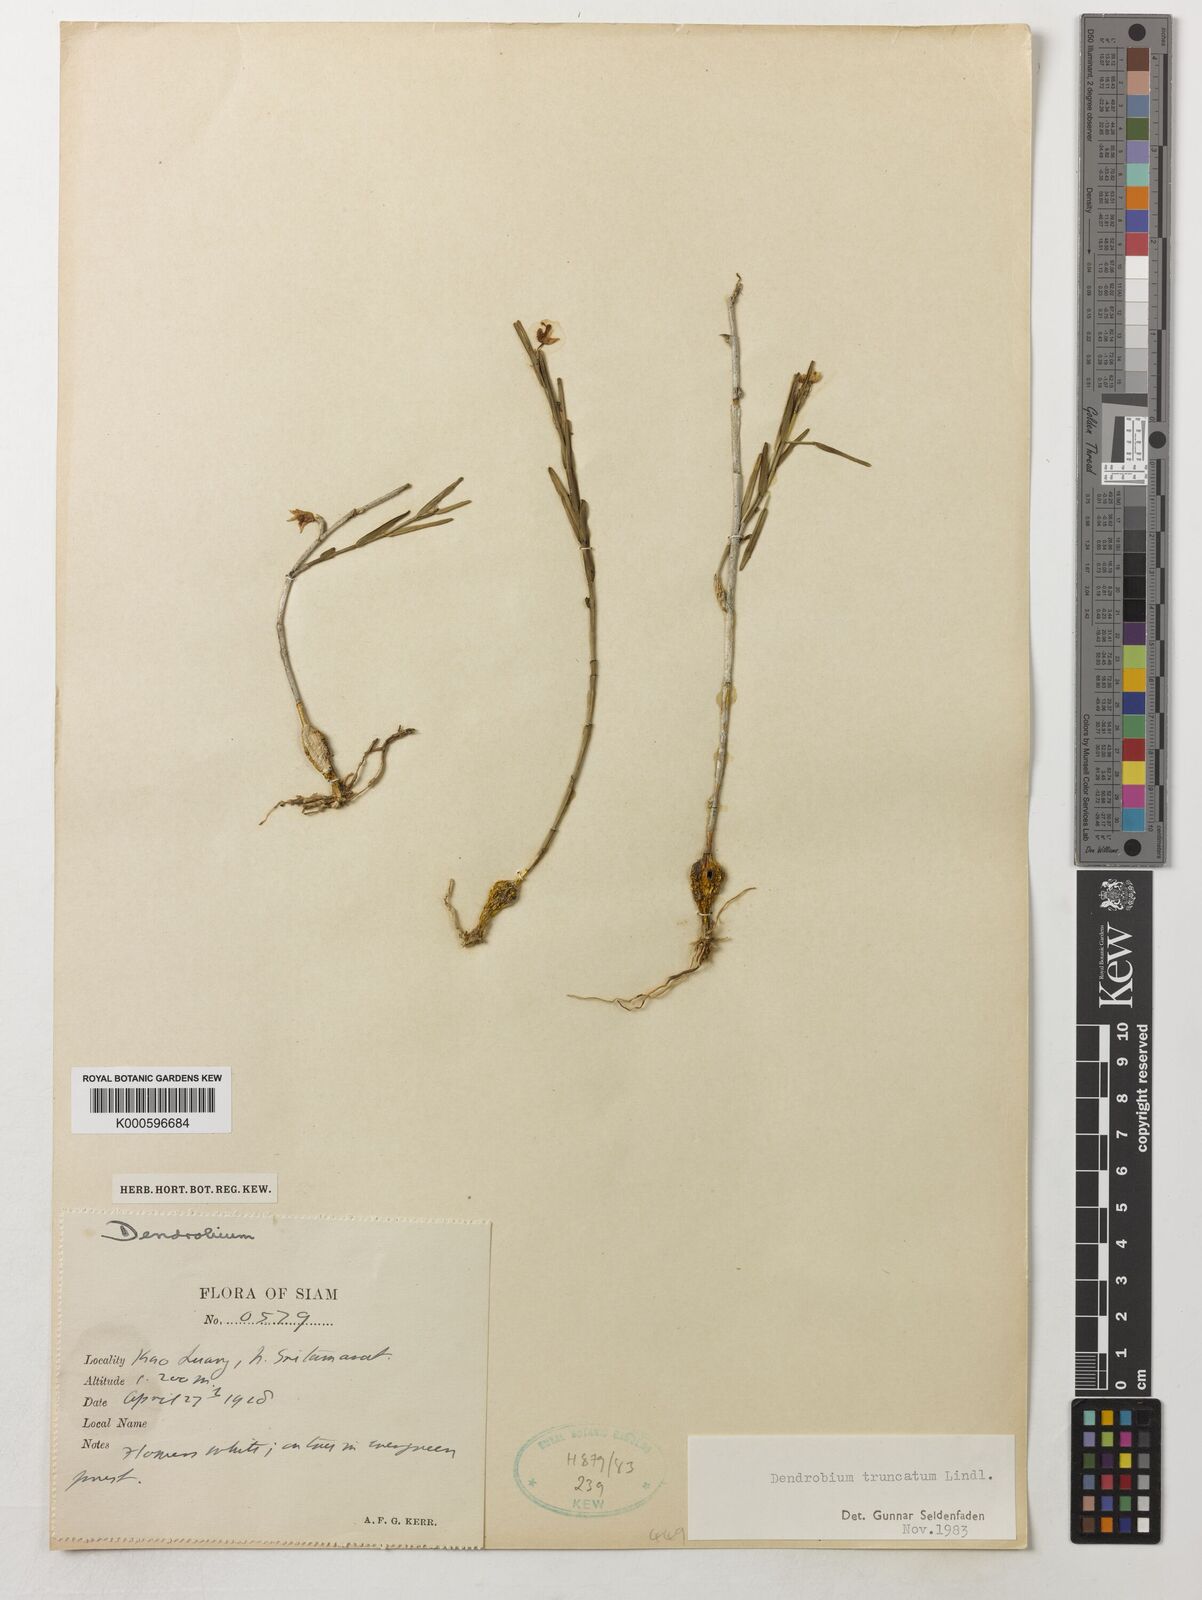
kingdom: Plantae
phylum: Tracheophyta
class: Liliopsida
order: Asparagales
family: Orchidaceae
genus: Dendrobium
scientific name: Dendrobium truncatum
